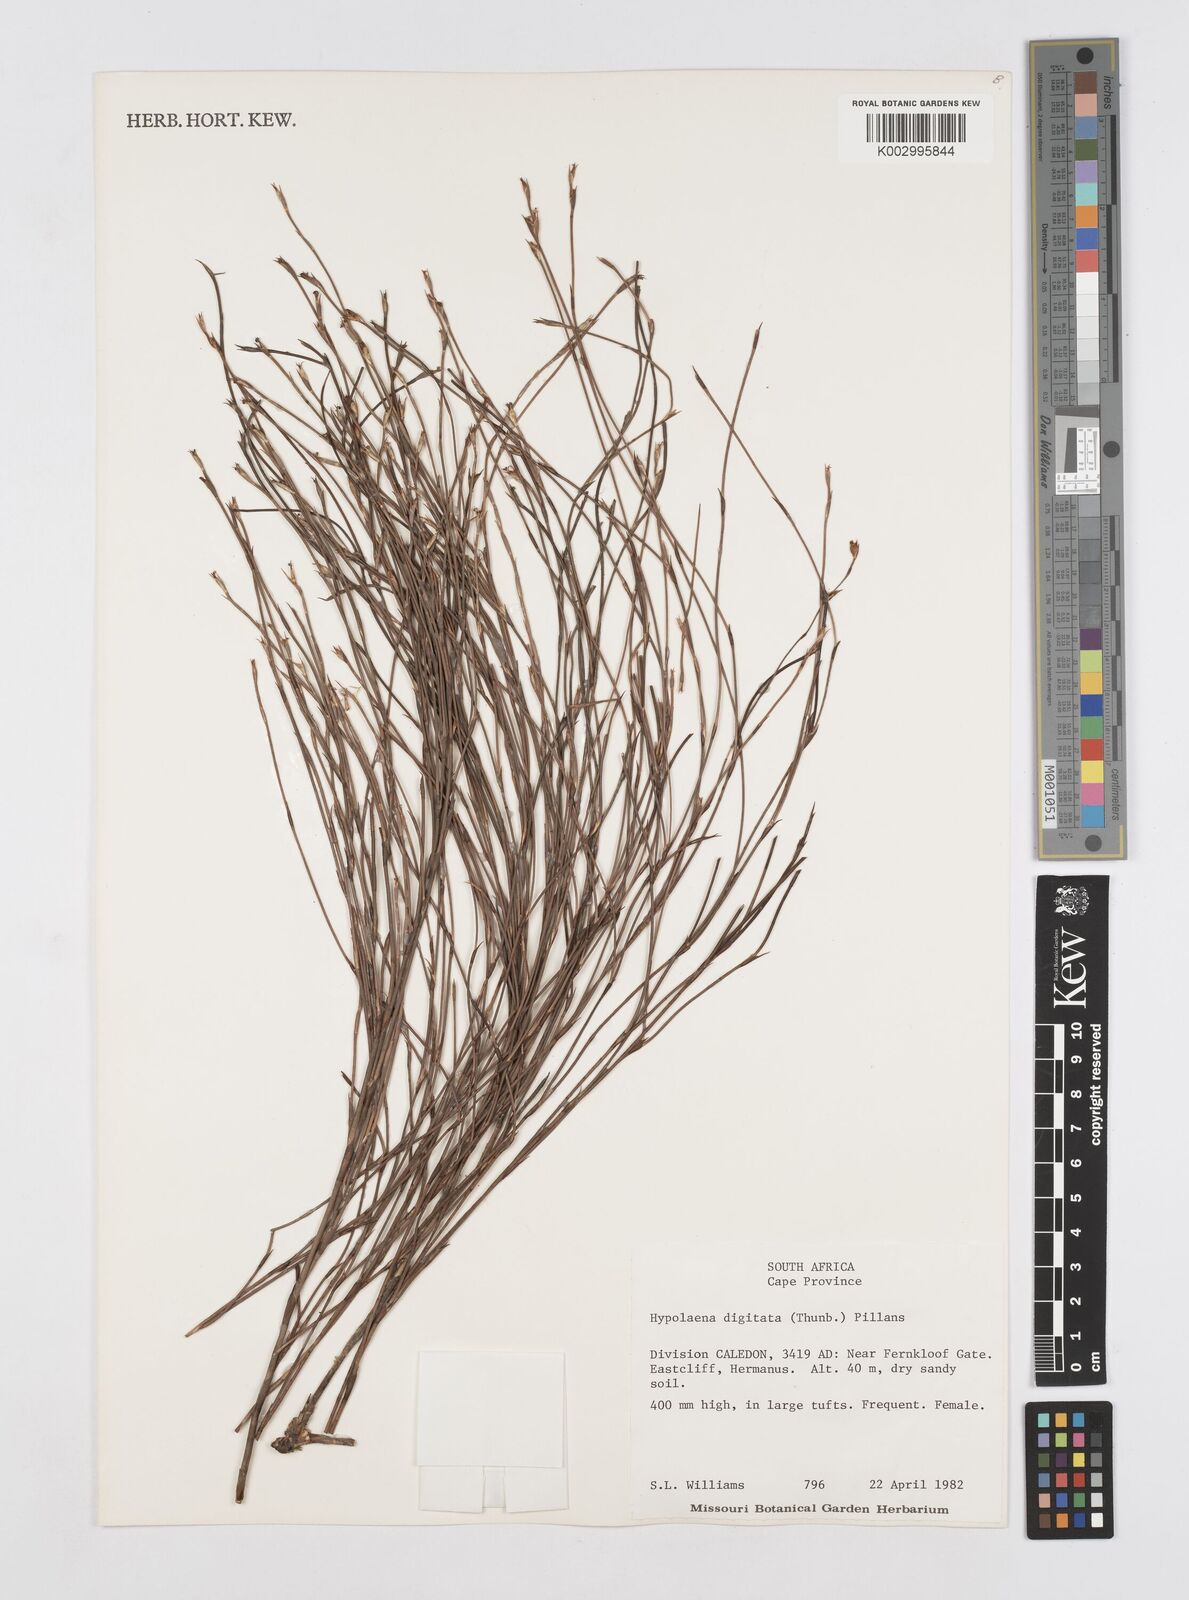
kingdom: Plantae
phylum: Tracheophyta
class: Liliopsida
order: Poales
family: Restionaceae
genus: Mastersiella
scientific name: Mastersiella digitata
